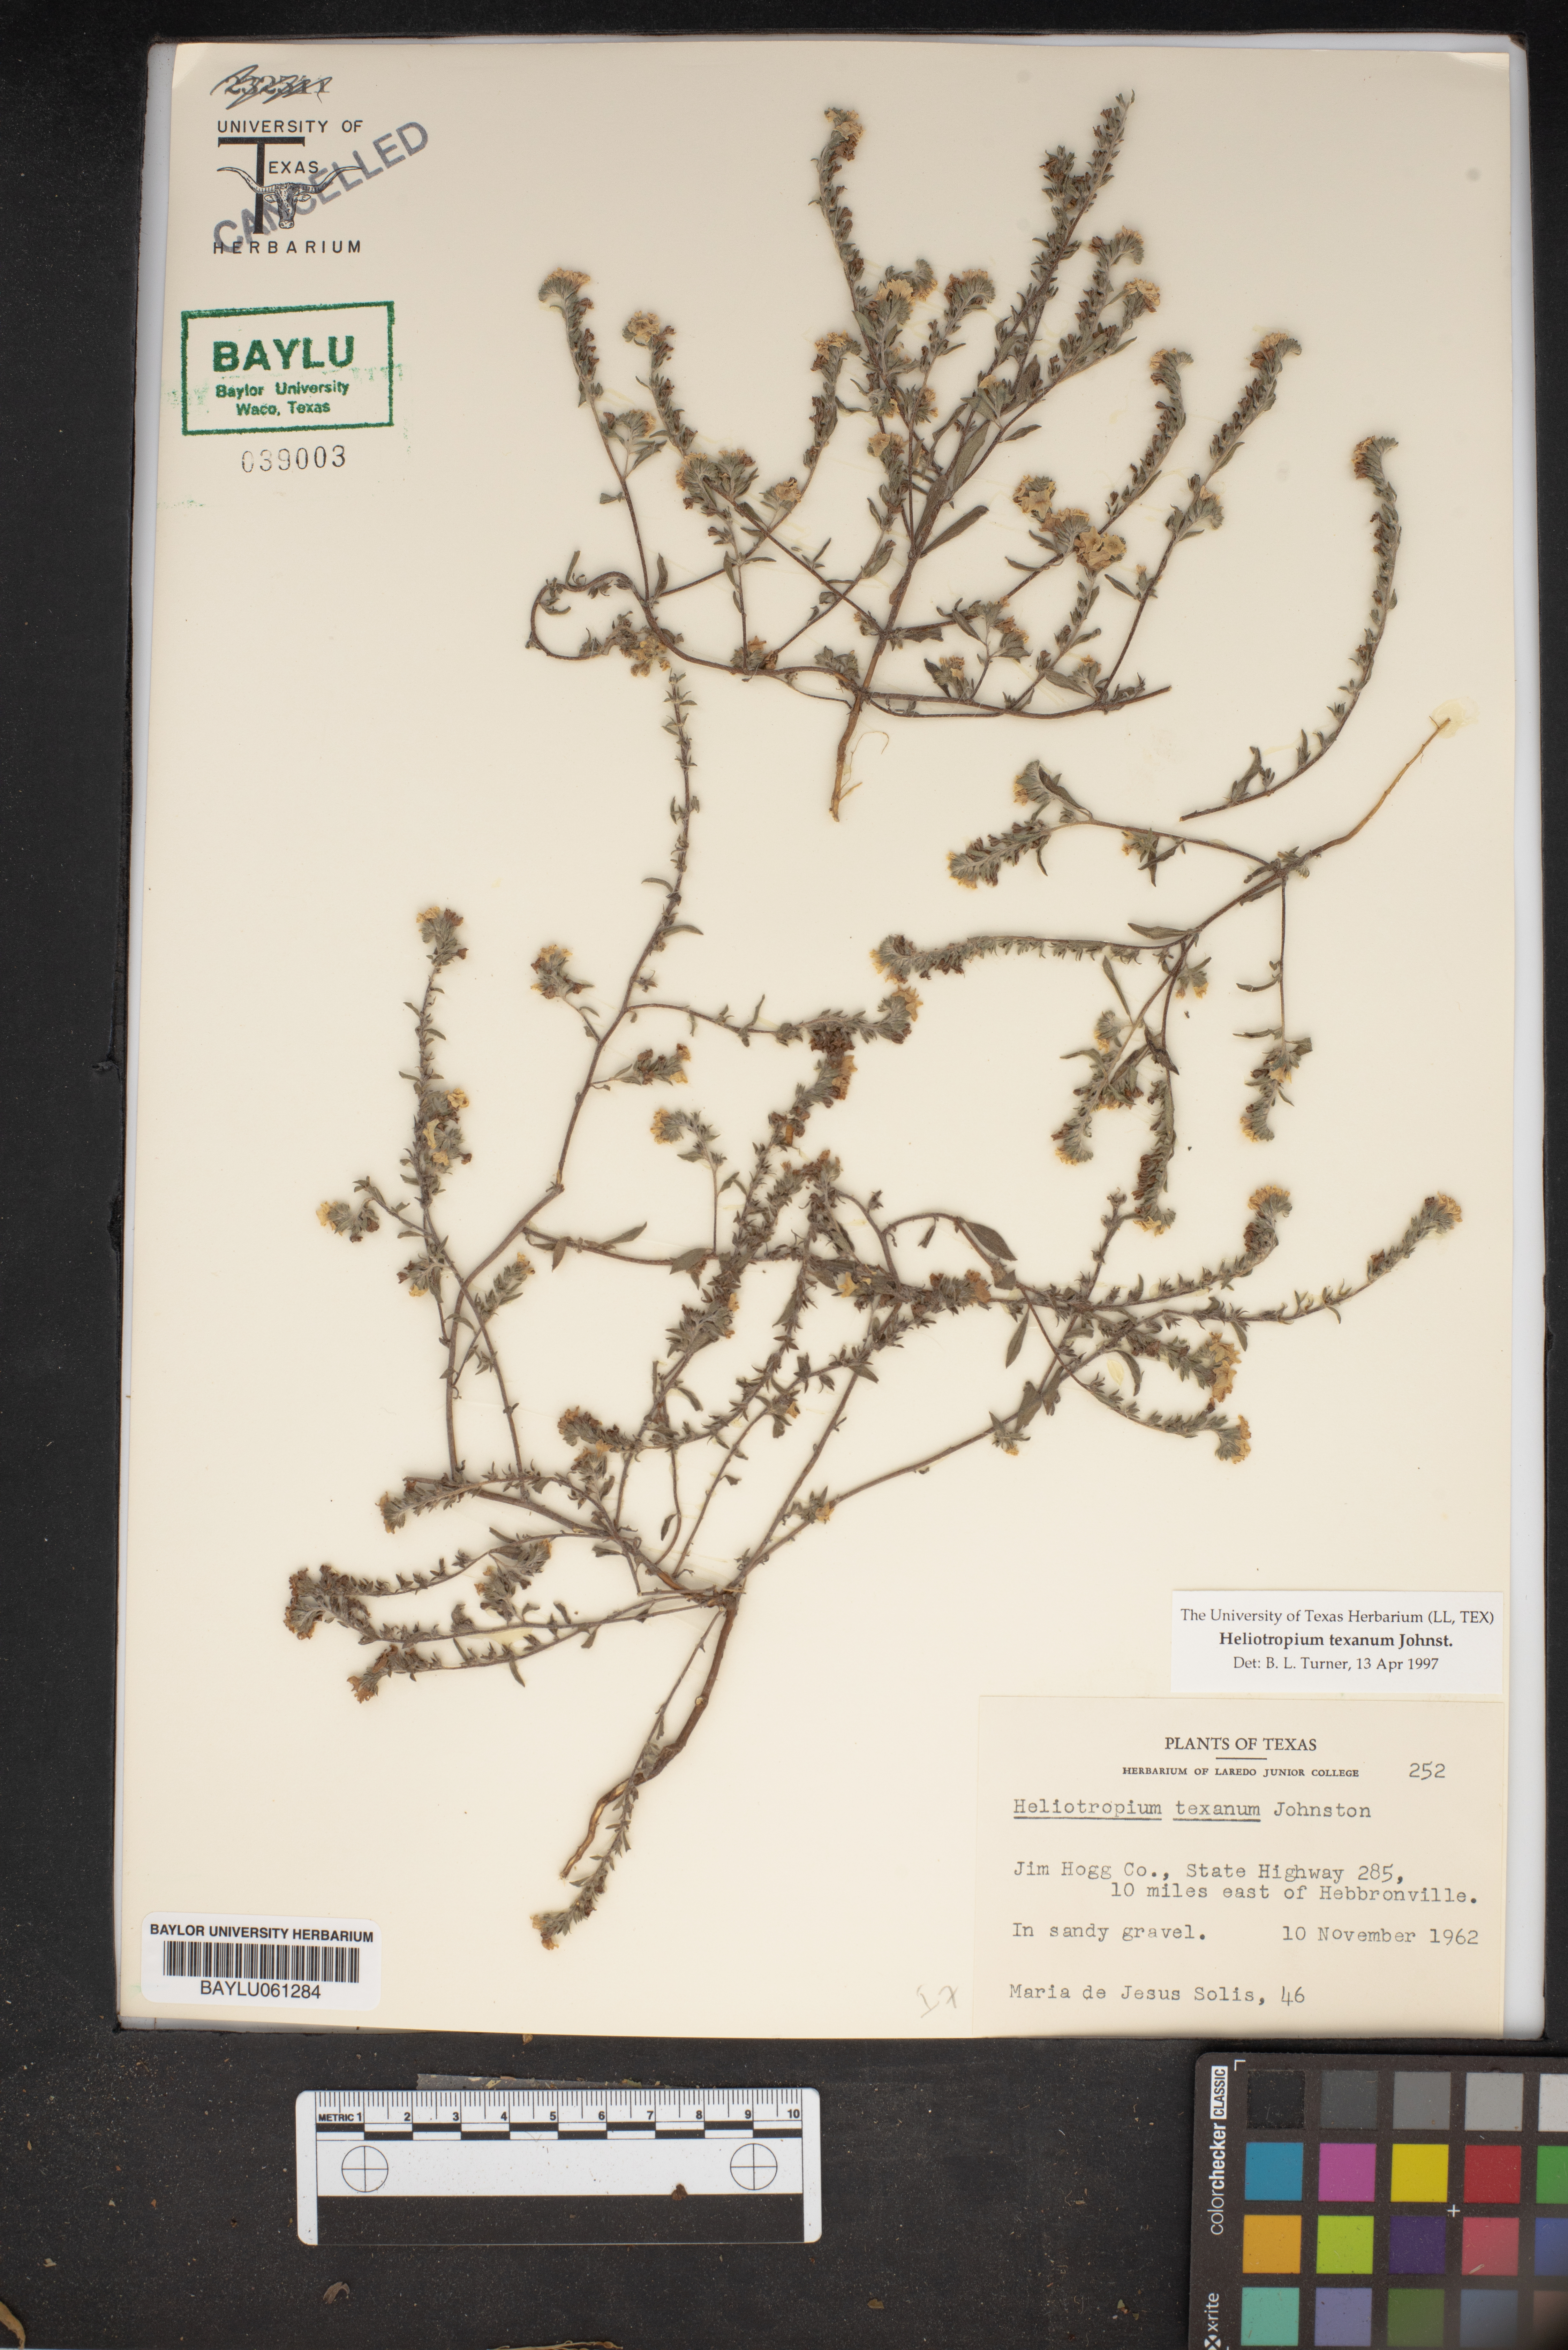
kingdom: Plantae
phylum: Tracheophyta
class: Magnoliopsida
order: Boraginales
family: Heliotropiaceae
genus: Euploca
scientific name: Euploca texana
